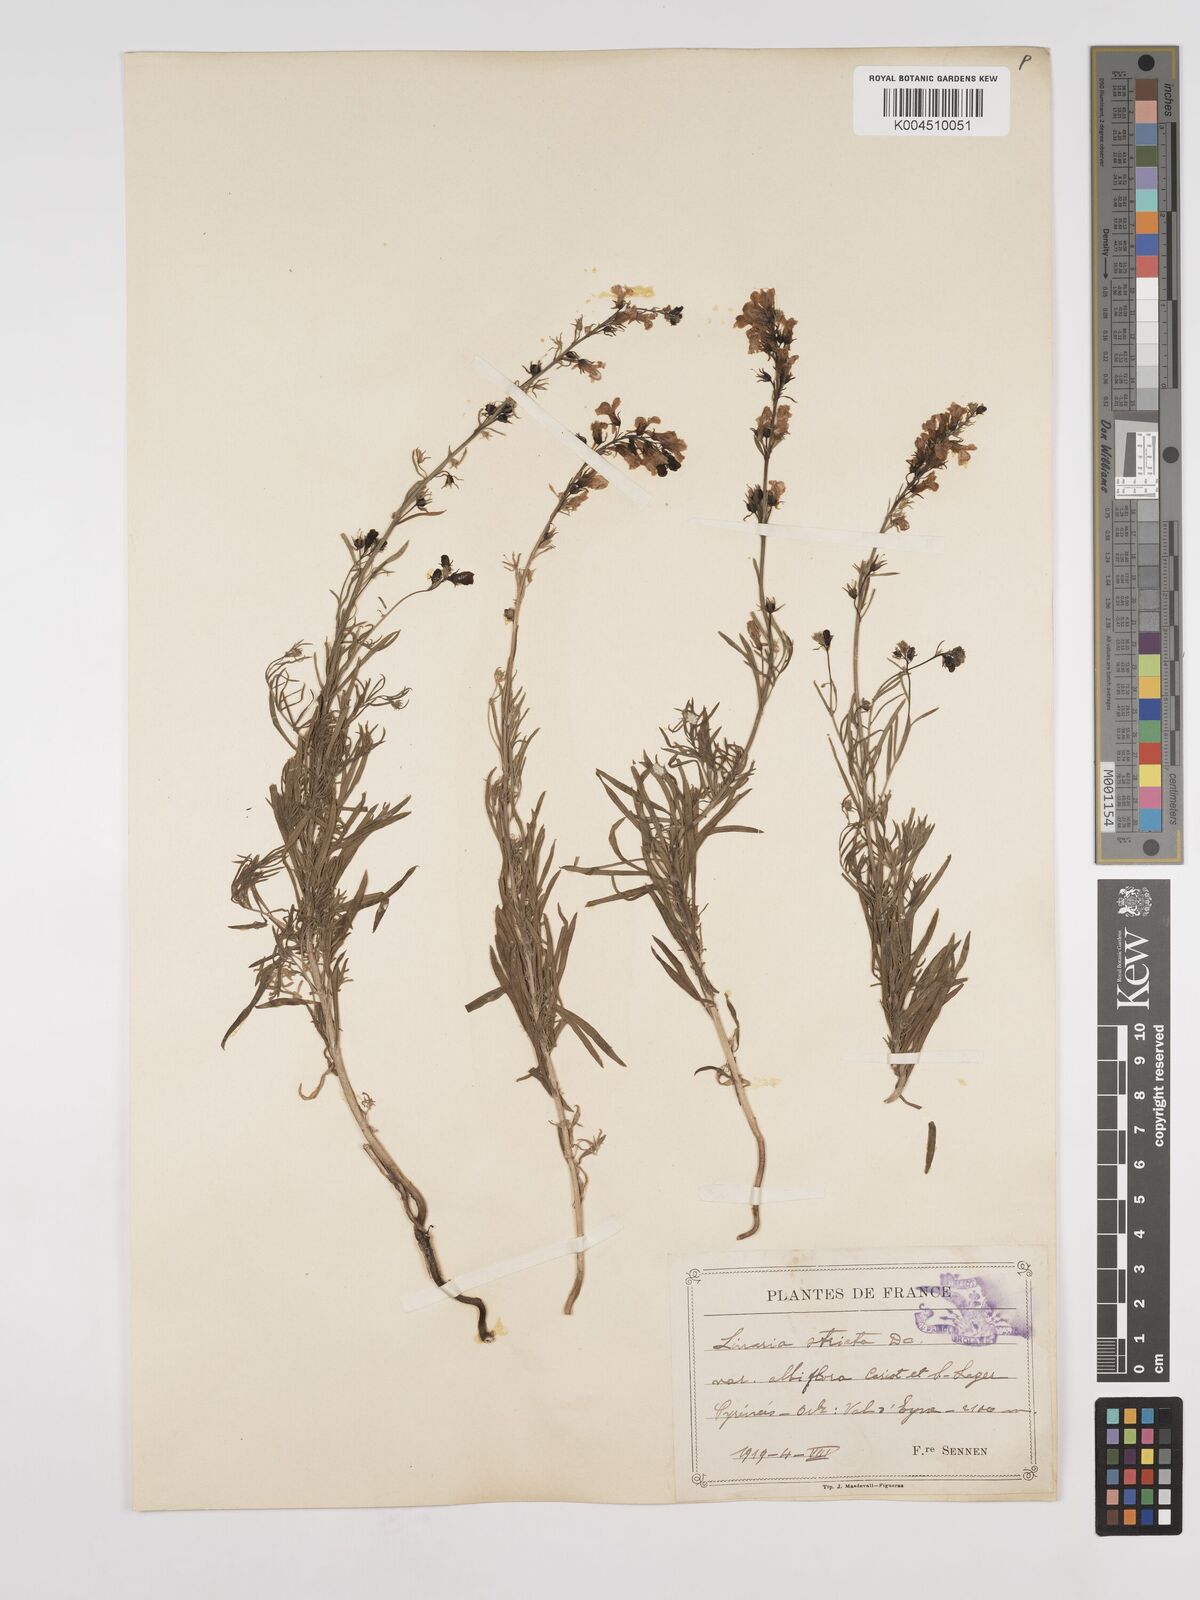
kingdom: Plantae
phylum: Tracheophyta
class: Magnoliopsida
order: Lamiales
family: Plantaginaceae
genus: Linaria
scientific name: Linaria repens
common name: Pale toadflax
